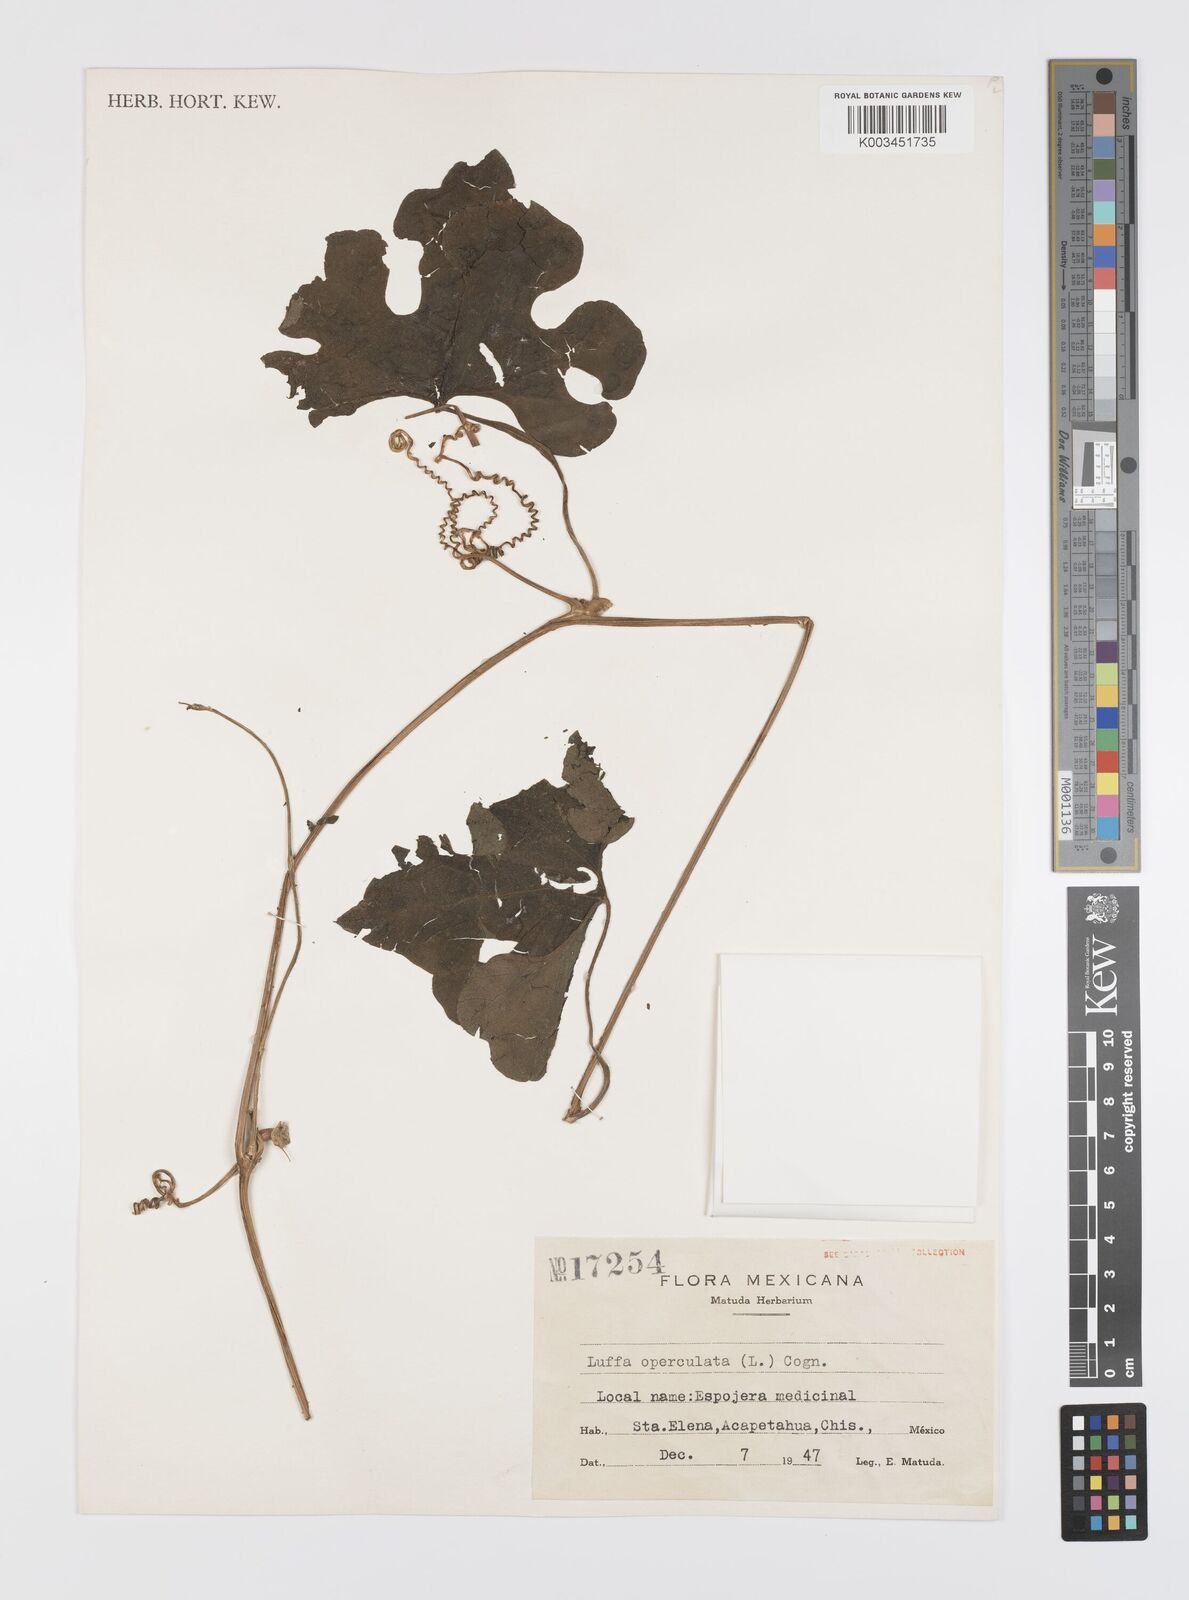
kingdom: Plantae
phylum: Tracheophyta
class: Magnoliopsida
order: Cucurbitales
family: Cucurbitaceae
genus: Luffa
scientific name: Luffa quinquefolia
